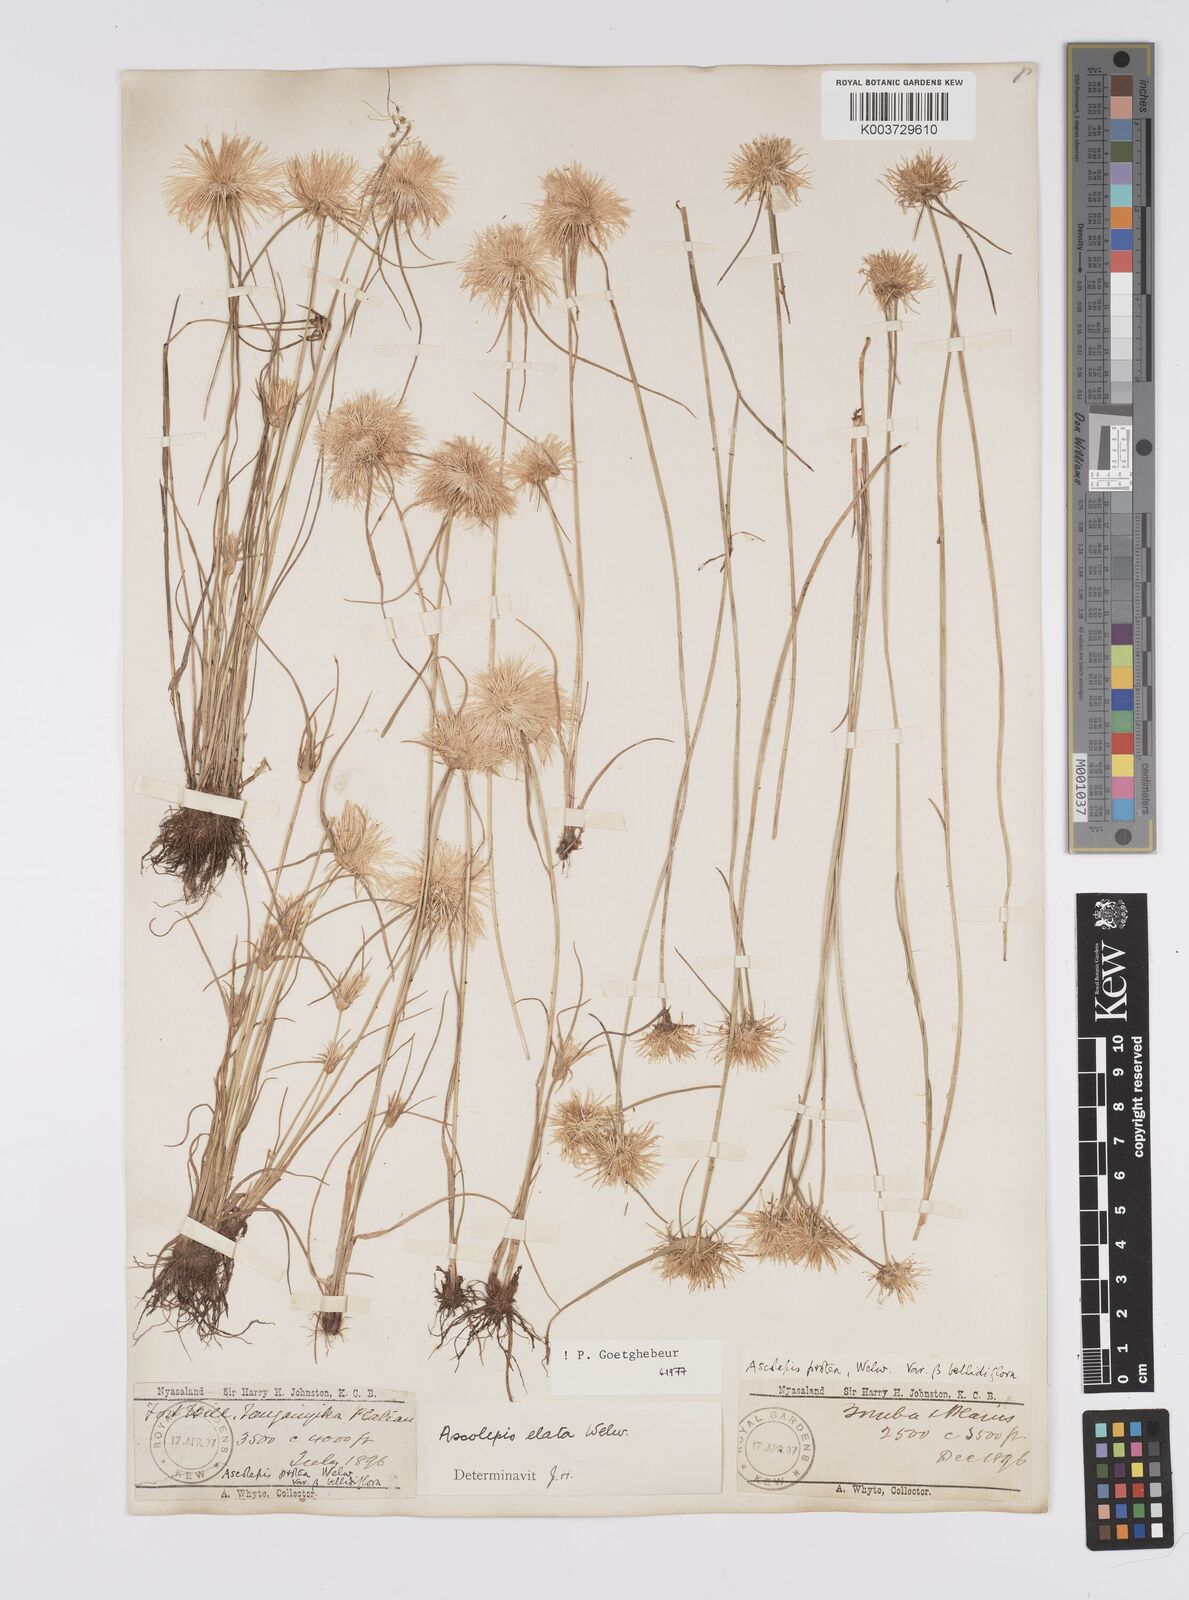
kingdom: Plantae
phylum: Tracheophyta
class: Liliopsida
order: Poales
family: Cyperaceae
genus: Cyperus
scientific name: Cyperus proteus
